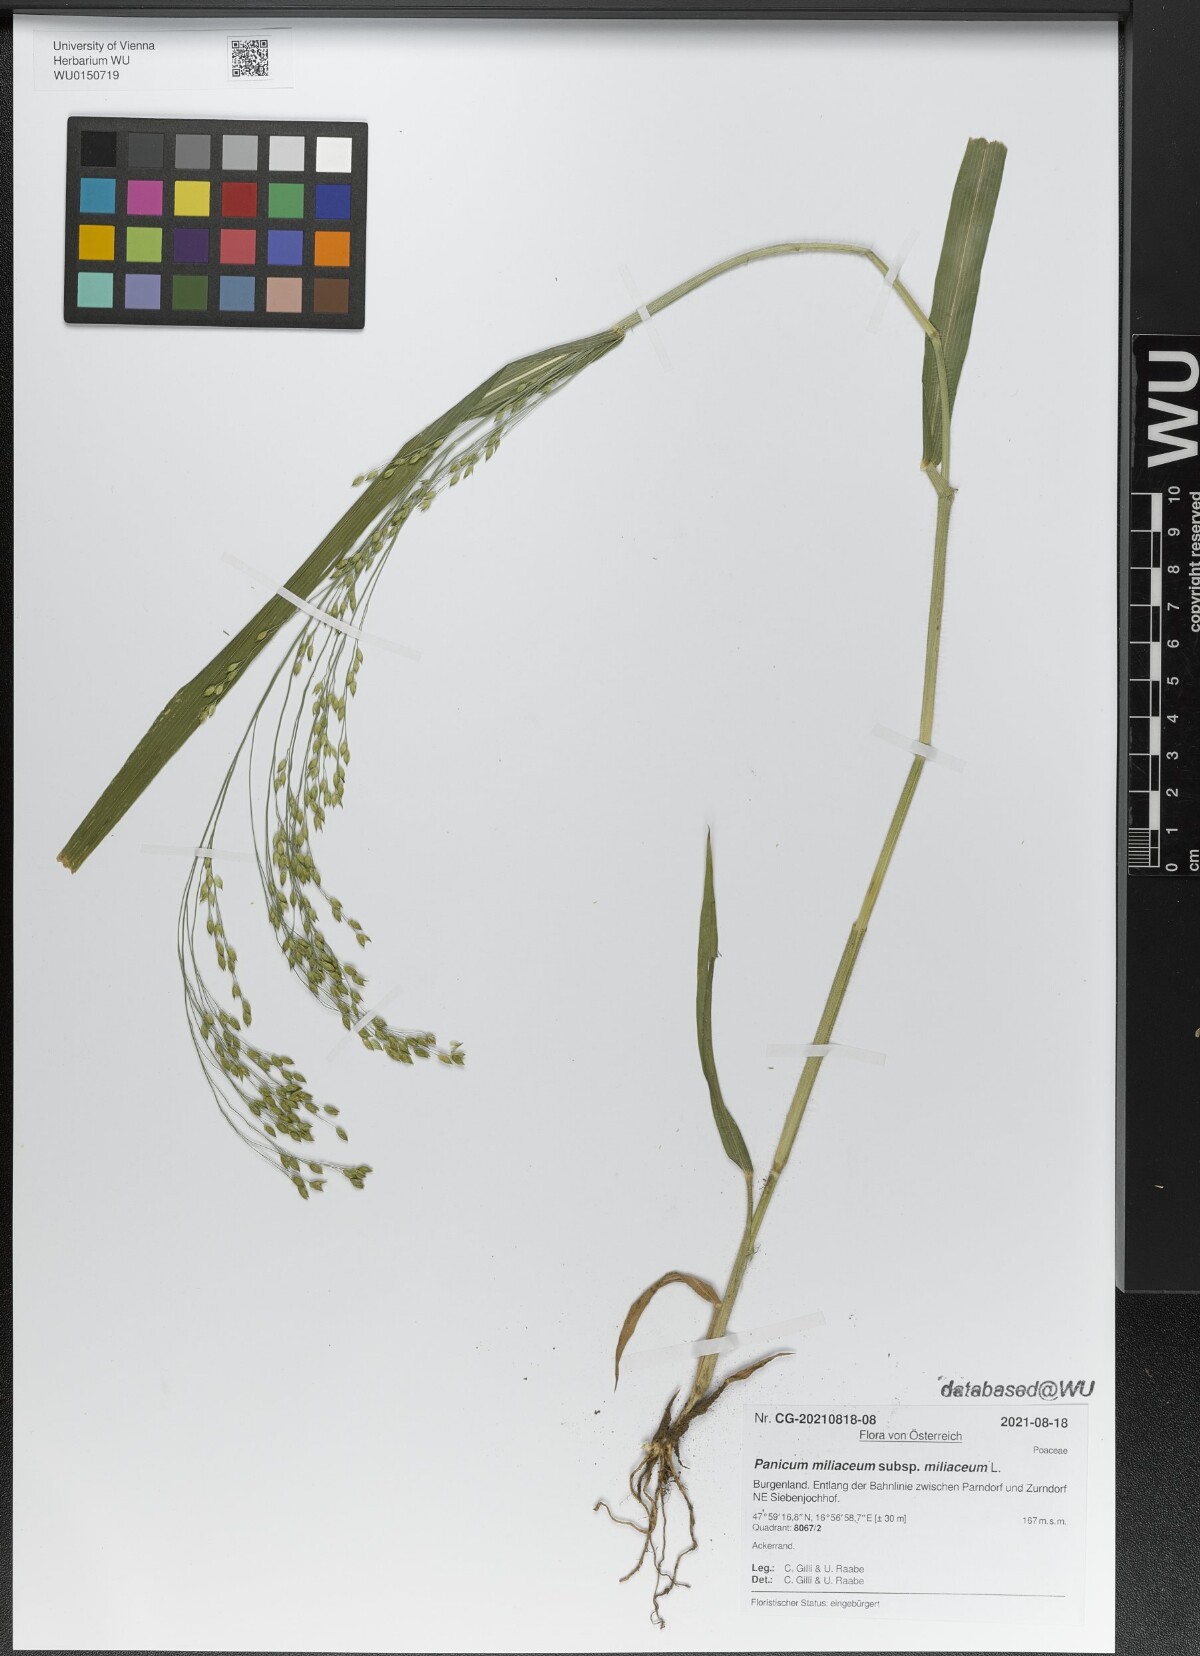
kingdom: Plantae
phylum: Tracheophyta
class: Liliopsida
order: Poales
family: Poaceae
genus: Panicum
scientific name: Panicum miliaceum
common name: Common millet
